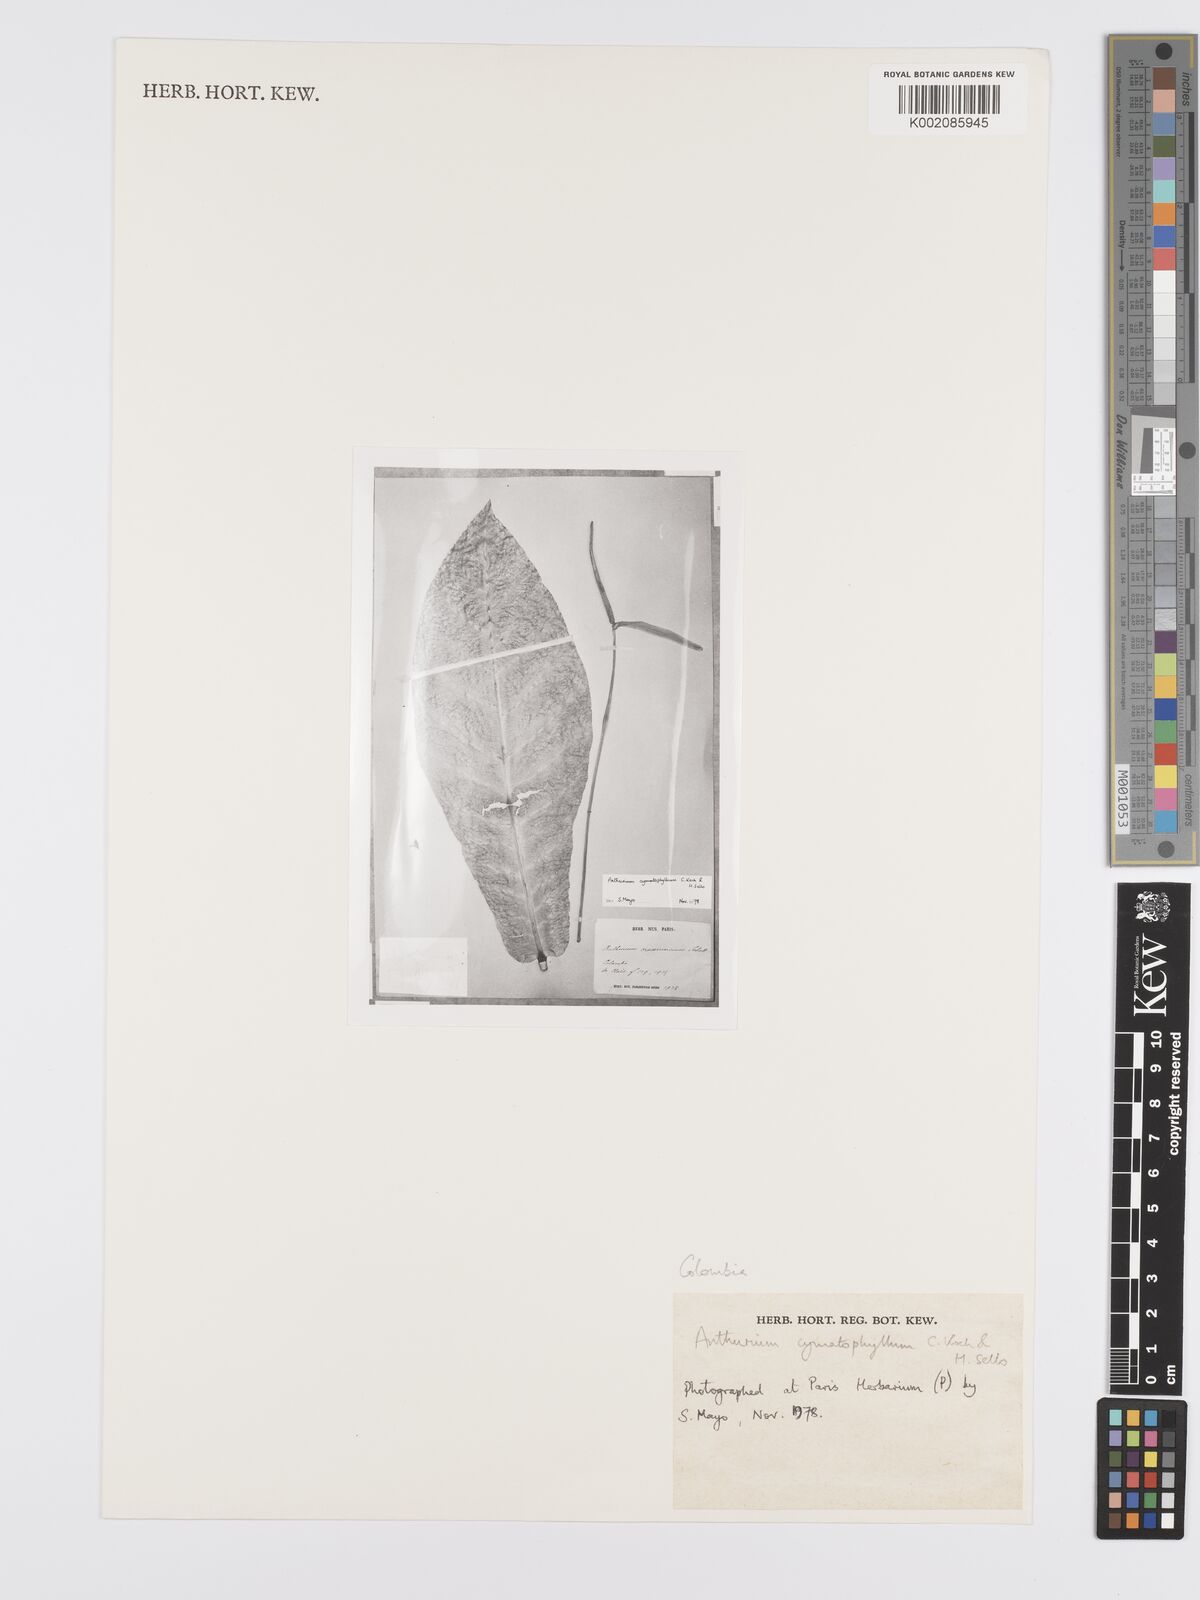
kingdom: Plantae
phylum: Tracheophyta
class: Liliopsida
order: Alismatales
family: Araceae
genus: Anthurium
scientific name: Anthurium dombeyanum
